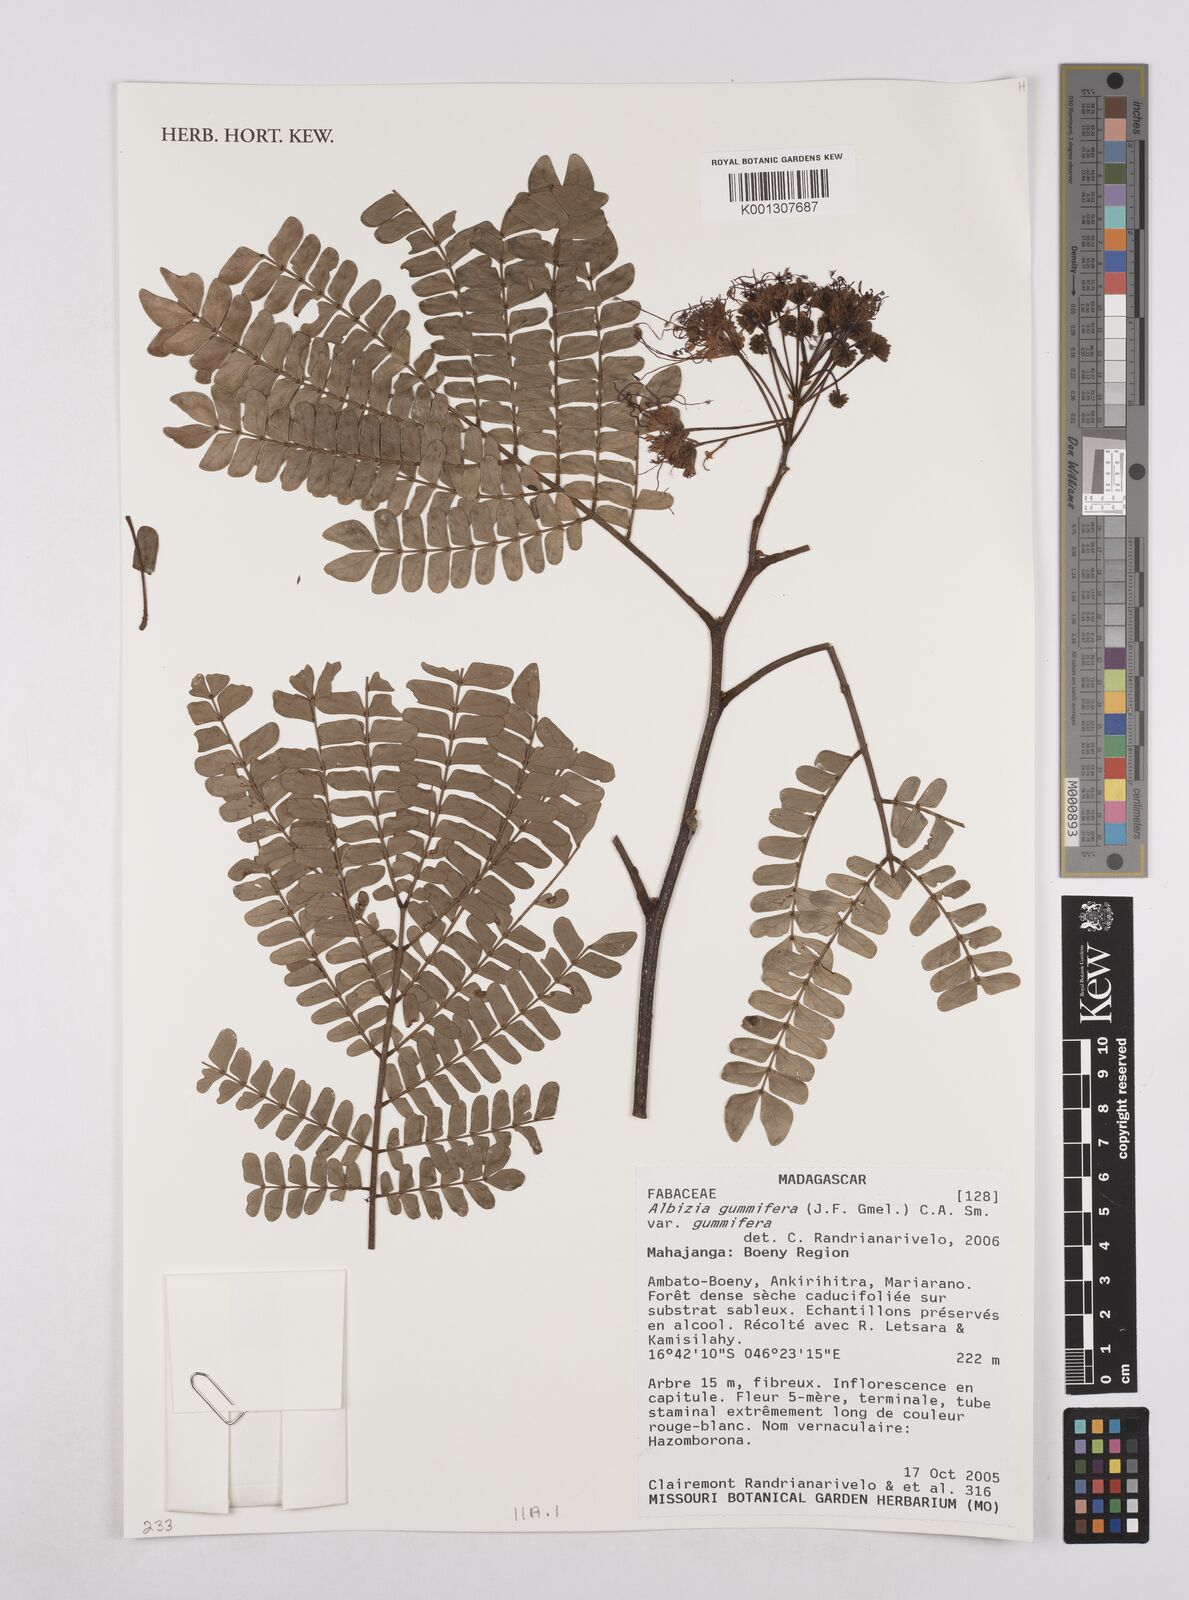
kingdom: Plantae
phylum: Tracheophyta
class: Magnoliopsida
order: Fabales
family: Fabaceae
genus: Albizia
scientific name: Albizia gummifera
